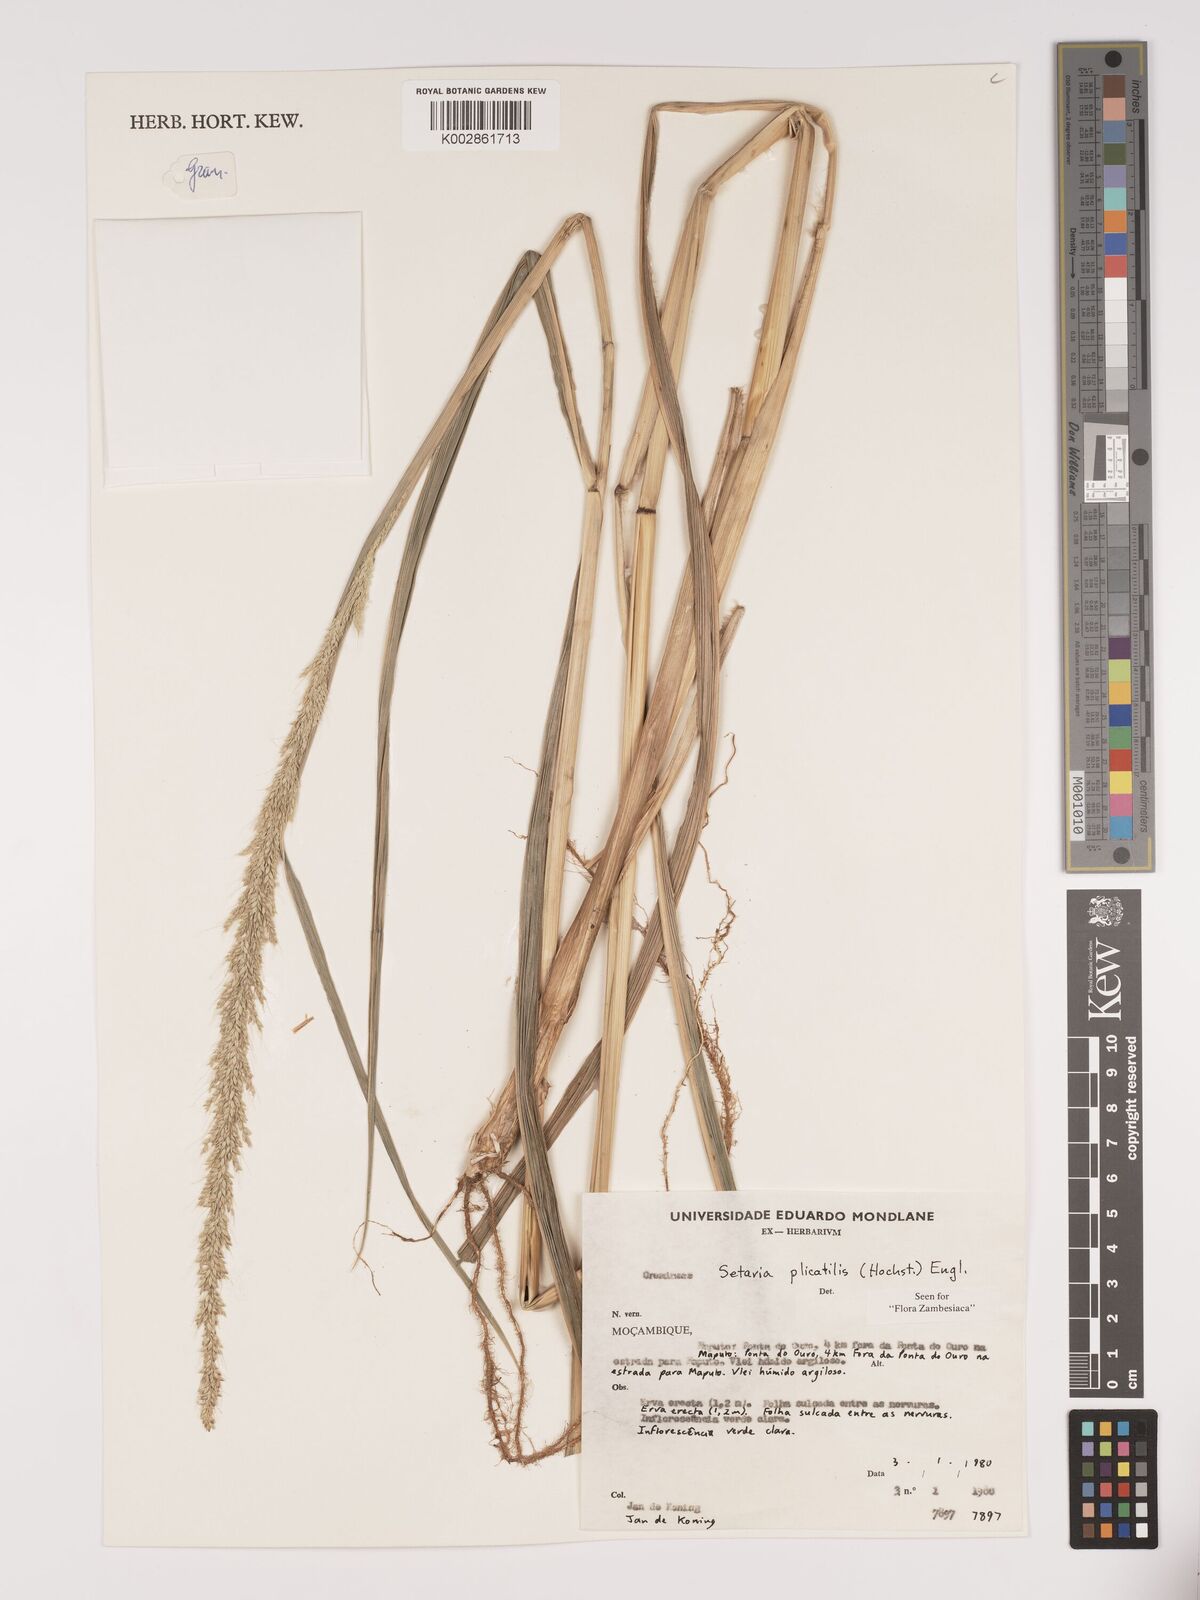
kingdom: Plantae
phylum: Tracheophyta
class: Liliopsida
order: Poales
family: Poaceae
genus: Setaria
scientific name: Setaria megaphylla
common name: Bigleaf bristlegrass
